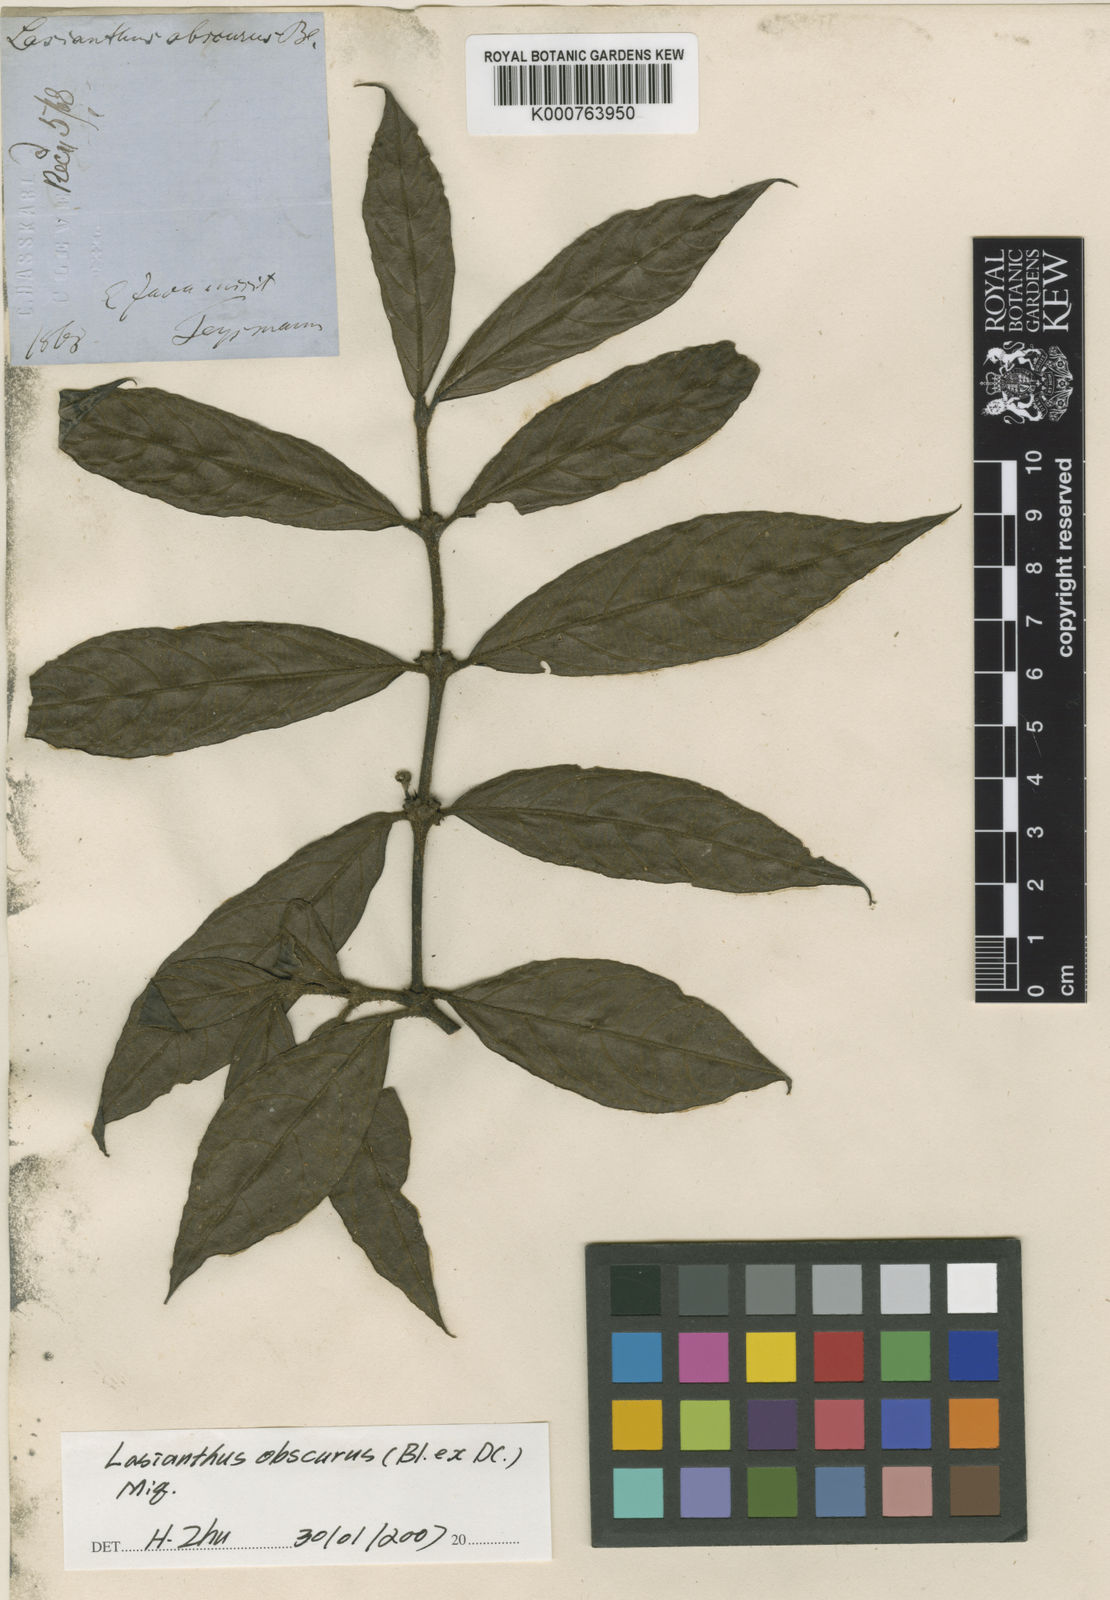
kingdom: Plantae
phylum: Tracheophyta
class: Magnoliopsida
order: Gentianales
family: Rubiaceae
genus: Lasianthus
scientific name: Lasianthus obscurus
